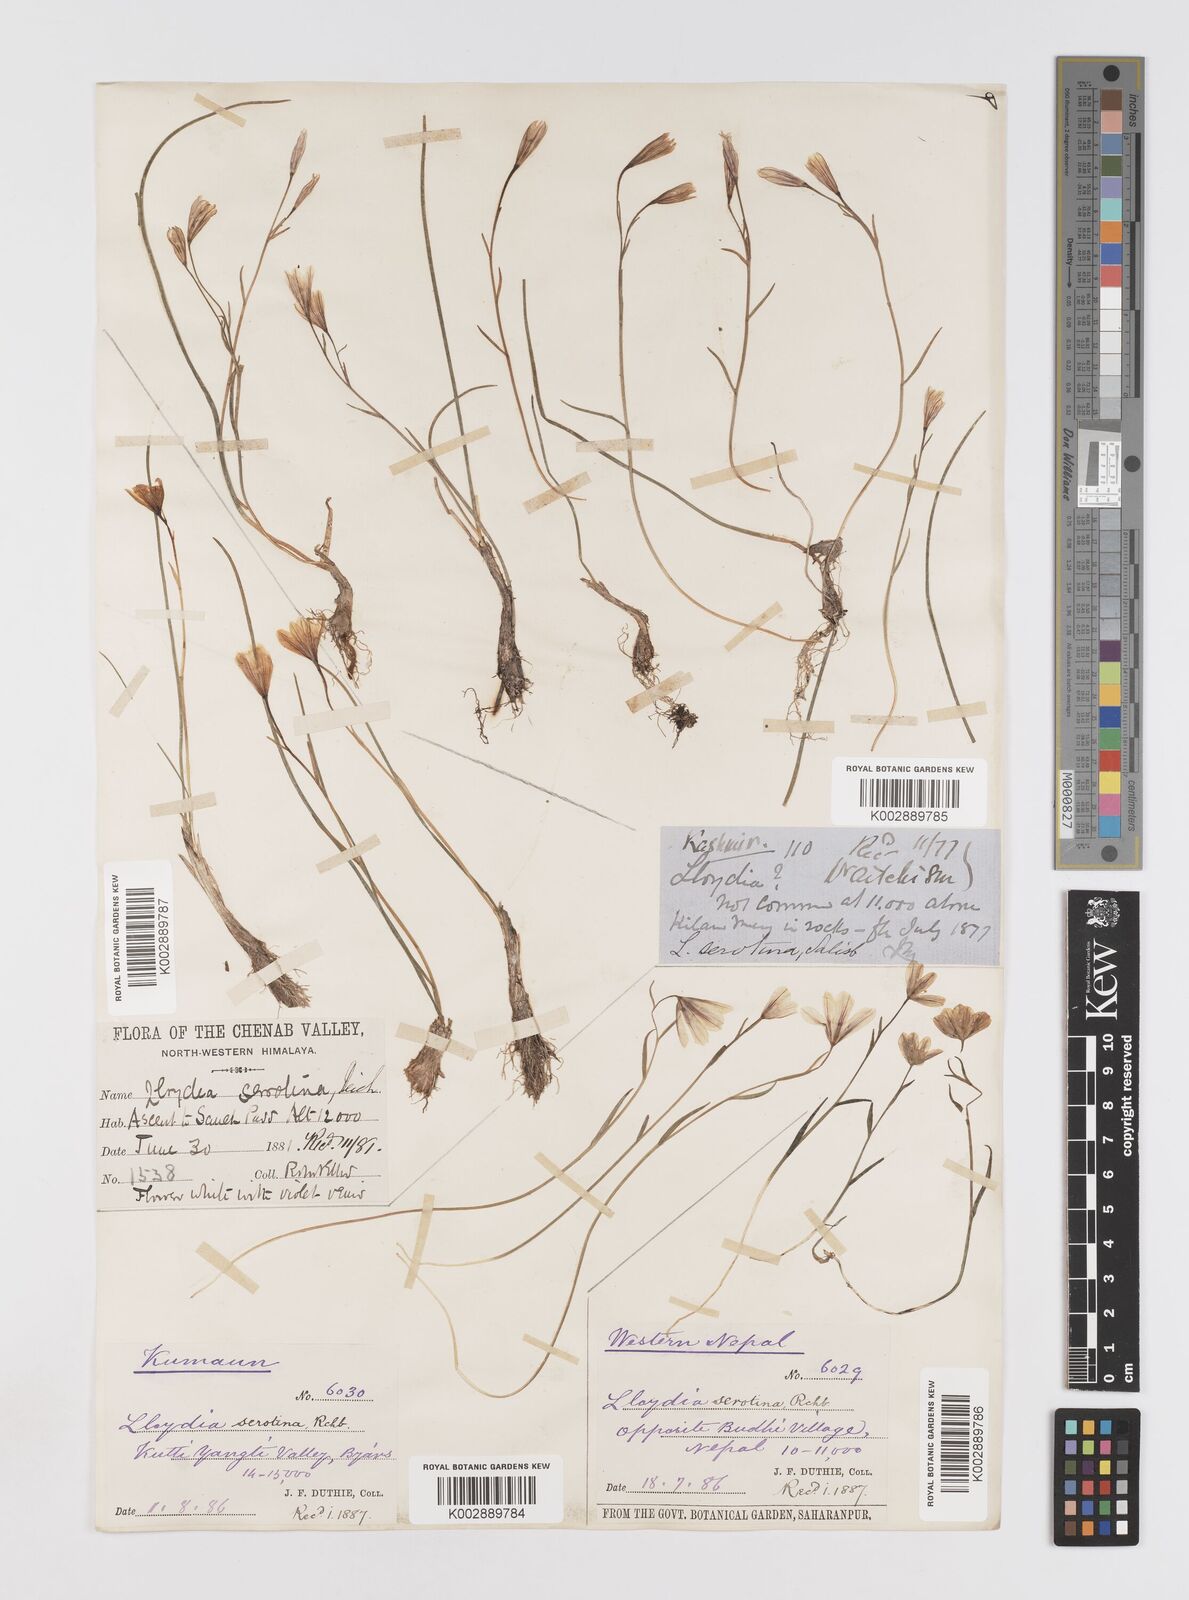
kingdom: Plantae
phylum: Tracheophyta
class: Liliopsida
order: Liliales
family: Liliaceae
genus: Gagea
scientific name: Gagea serotina
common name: Snowdon lily
